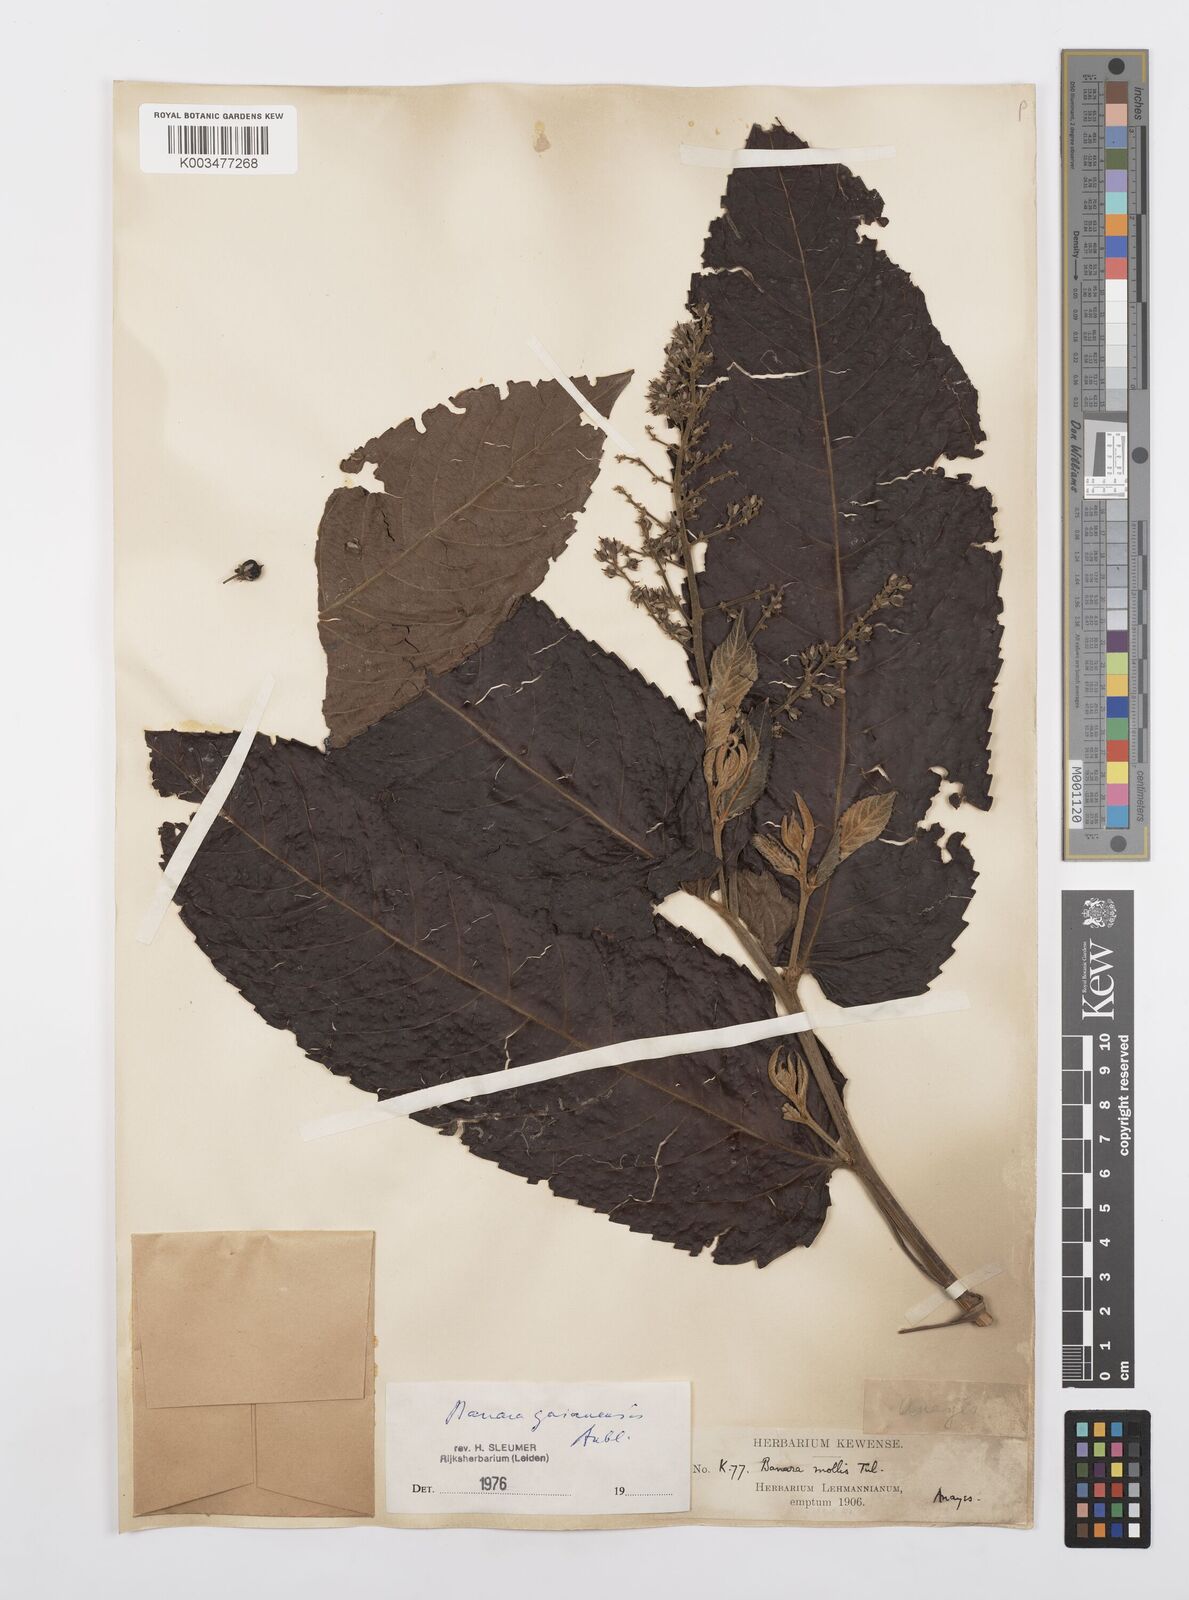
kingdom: Plantae
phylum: Tracheophyta
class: Magnoliopsida
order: Malpighiales
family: Salicaceae
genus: Banara
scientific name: Banara guianensis
